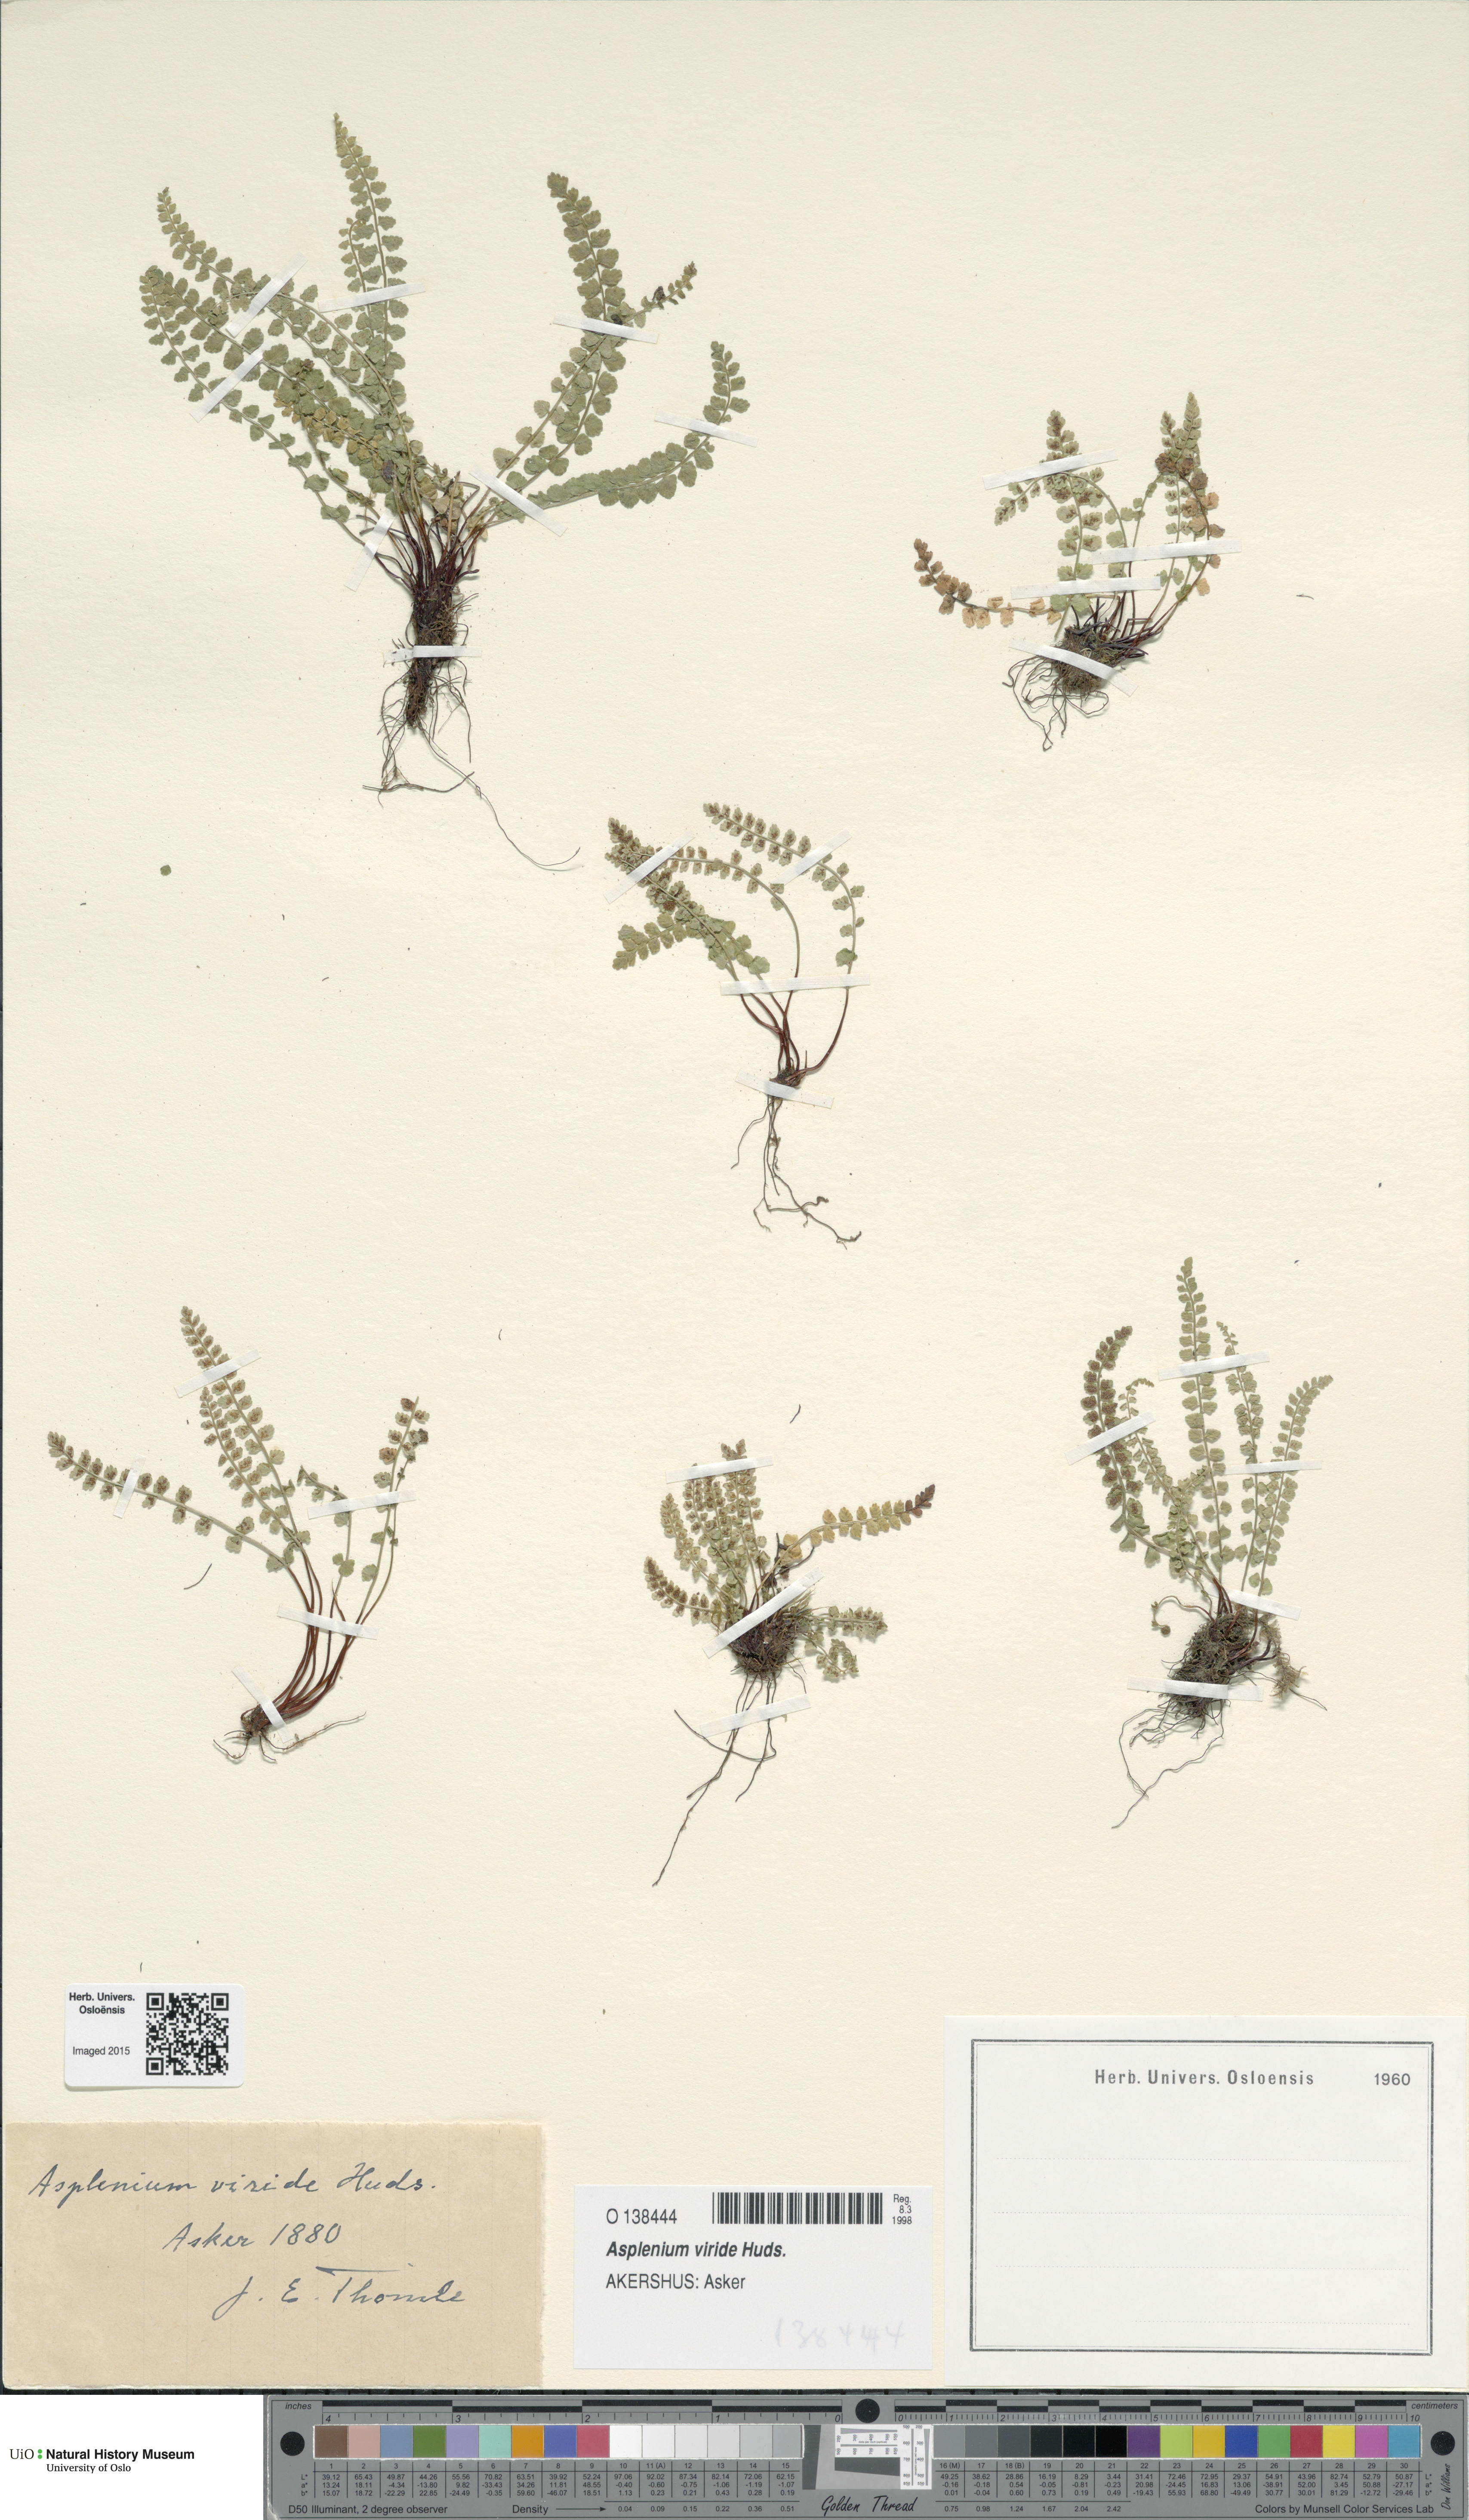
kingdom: Plantae
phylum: Tracheophyta
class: Polypodiopsida
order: Polypodiales
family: Aspleniaceae
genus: Asplenium
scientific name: Asplenium viride
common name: Green spleenwort
